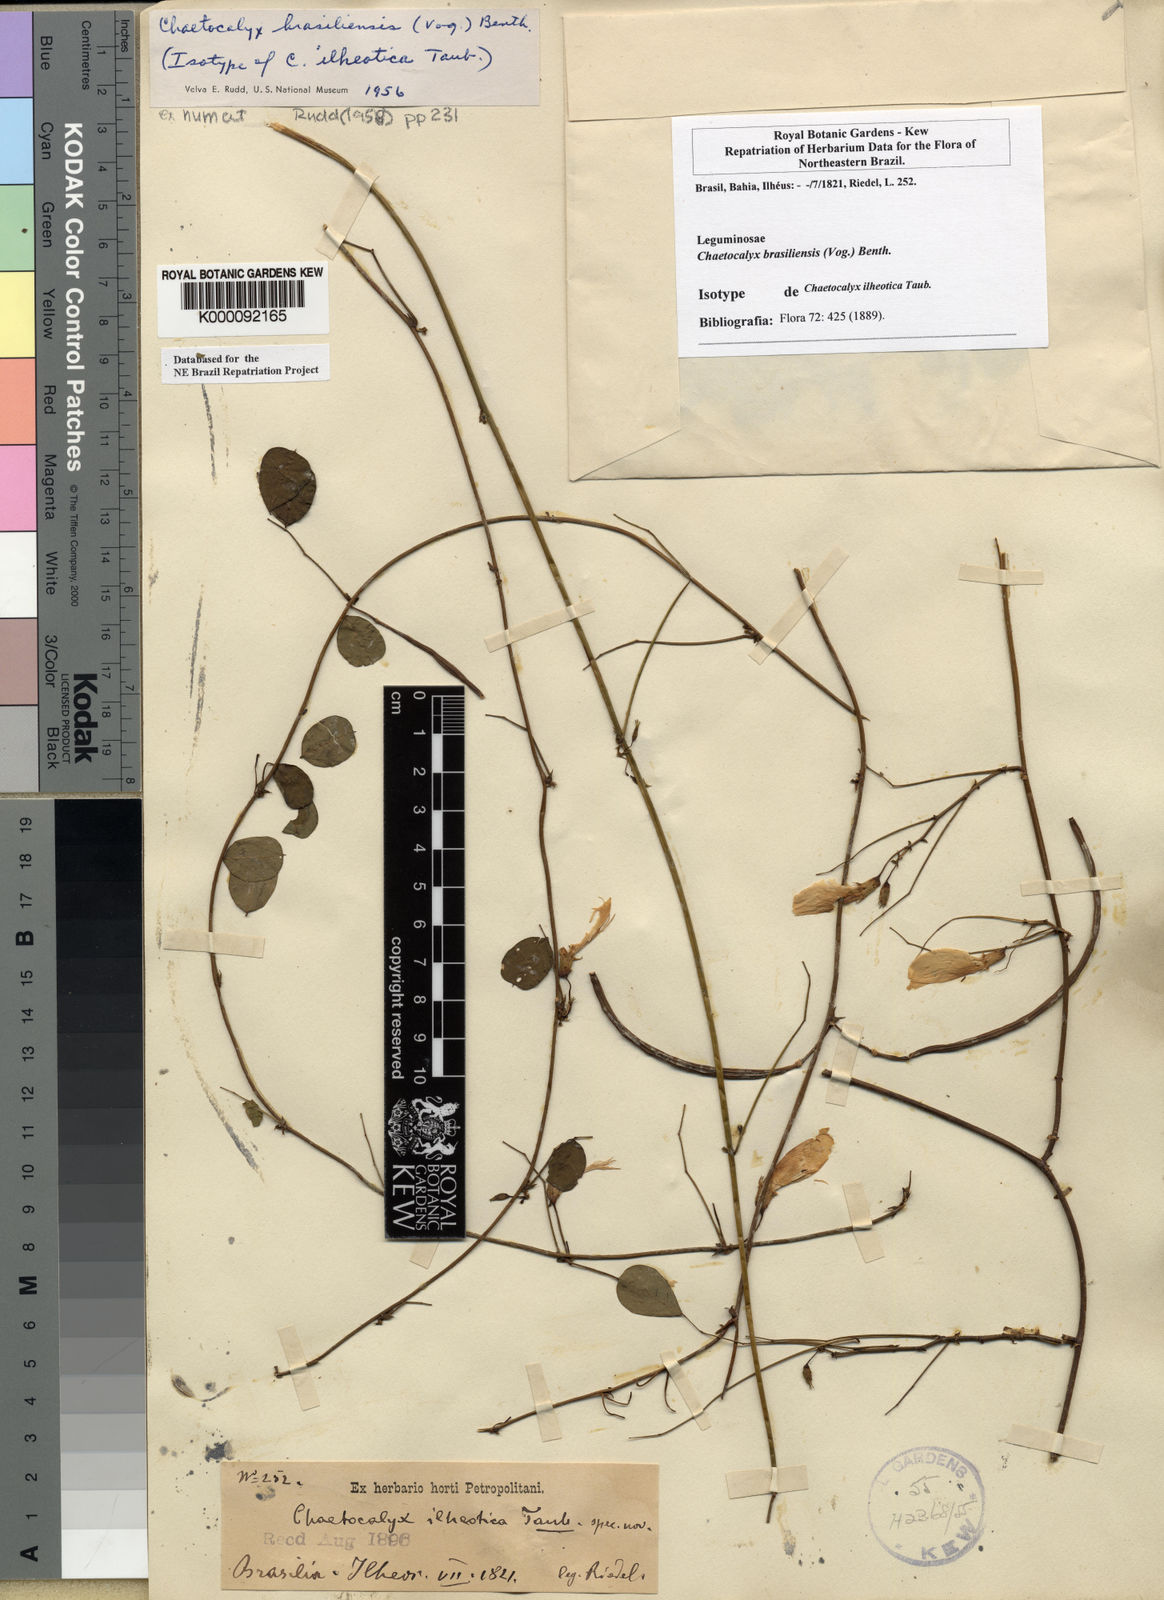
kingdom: Plantae
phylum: Tracheophyta
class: Magnoliopsida
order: Fabales
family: Fabaceae
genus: Nissolia
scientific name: Nissolia brasiliensis
